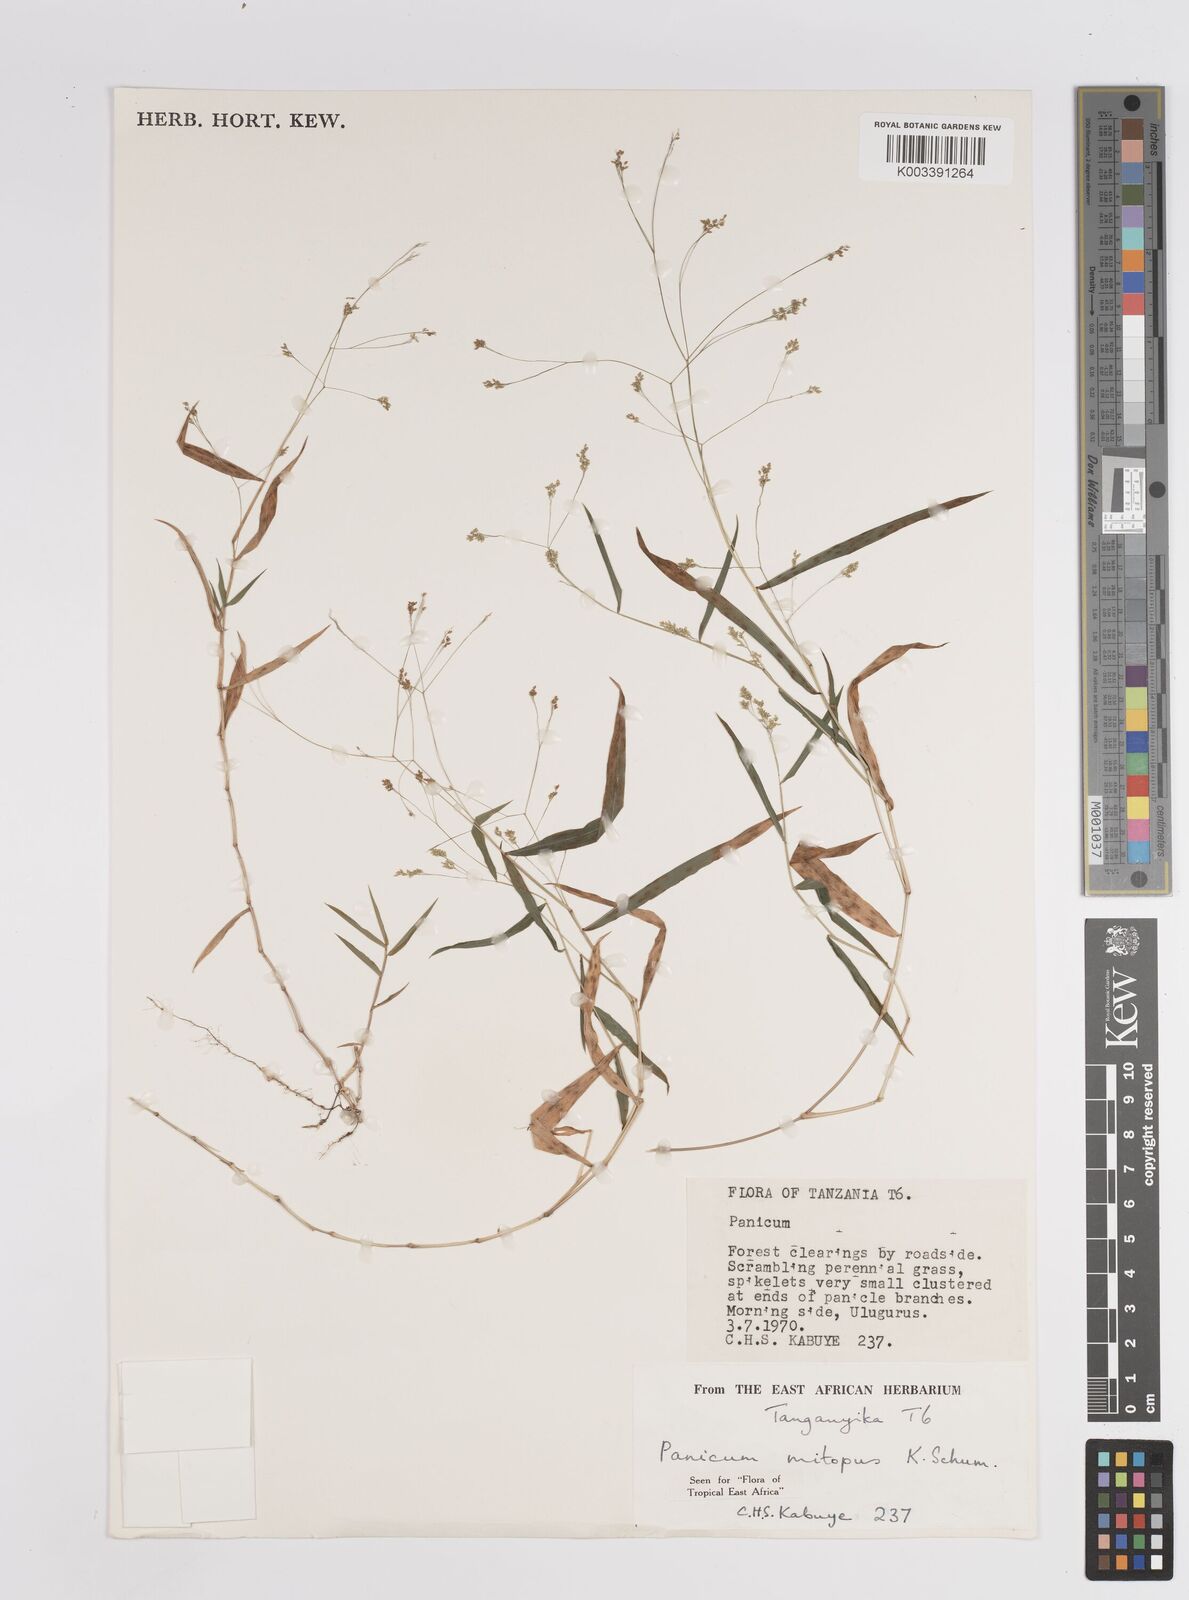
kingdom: Plantae
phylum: Tracheophyta
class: Liliopsida
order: Poales
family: Poaceae
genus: Panicum
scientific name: Panicum mitopus
